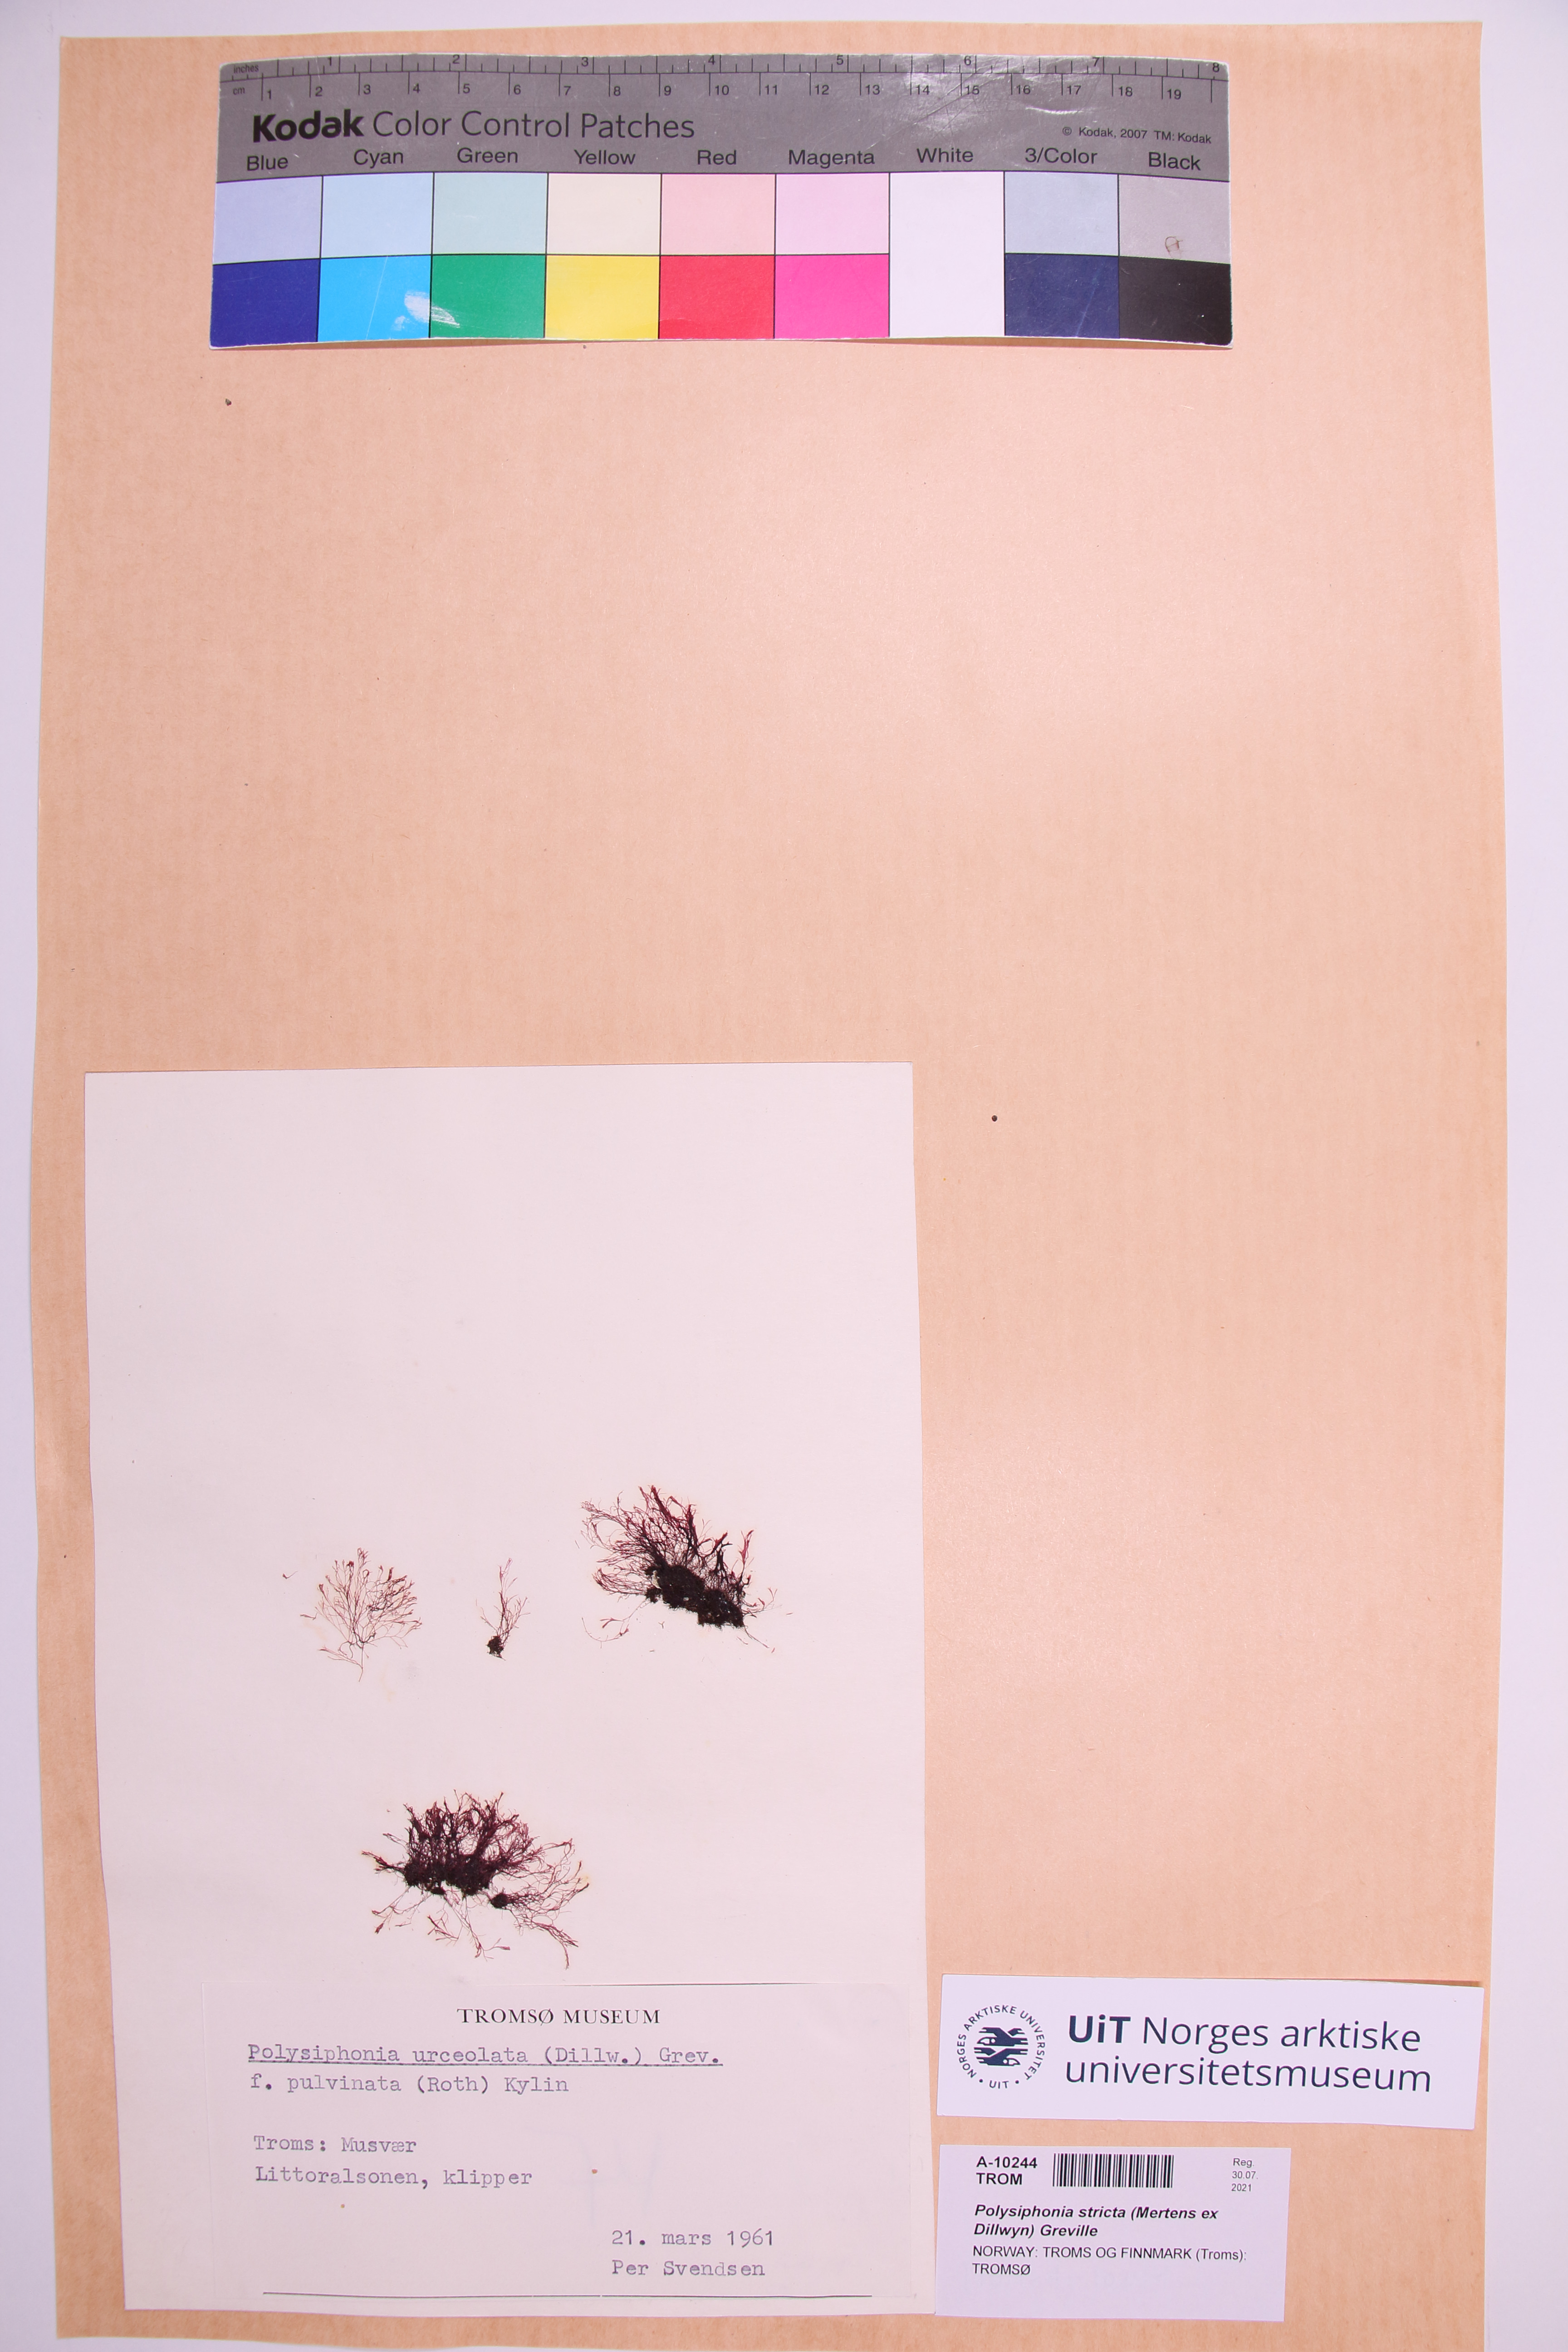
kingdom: Plantae
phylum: Rhodophyta
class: Florideophyceae
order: Ceramiales
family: Rhodomelaceae
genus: Polysiphonia
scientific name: Polysiphonia stricta
